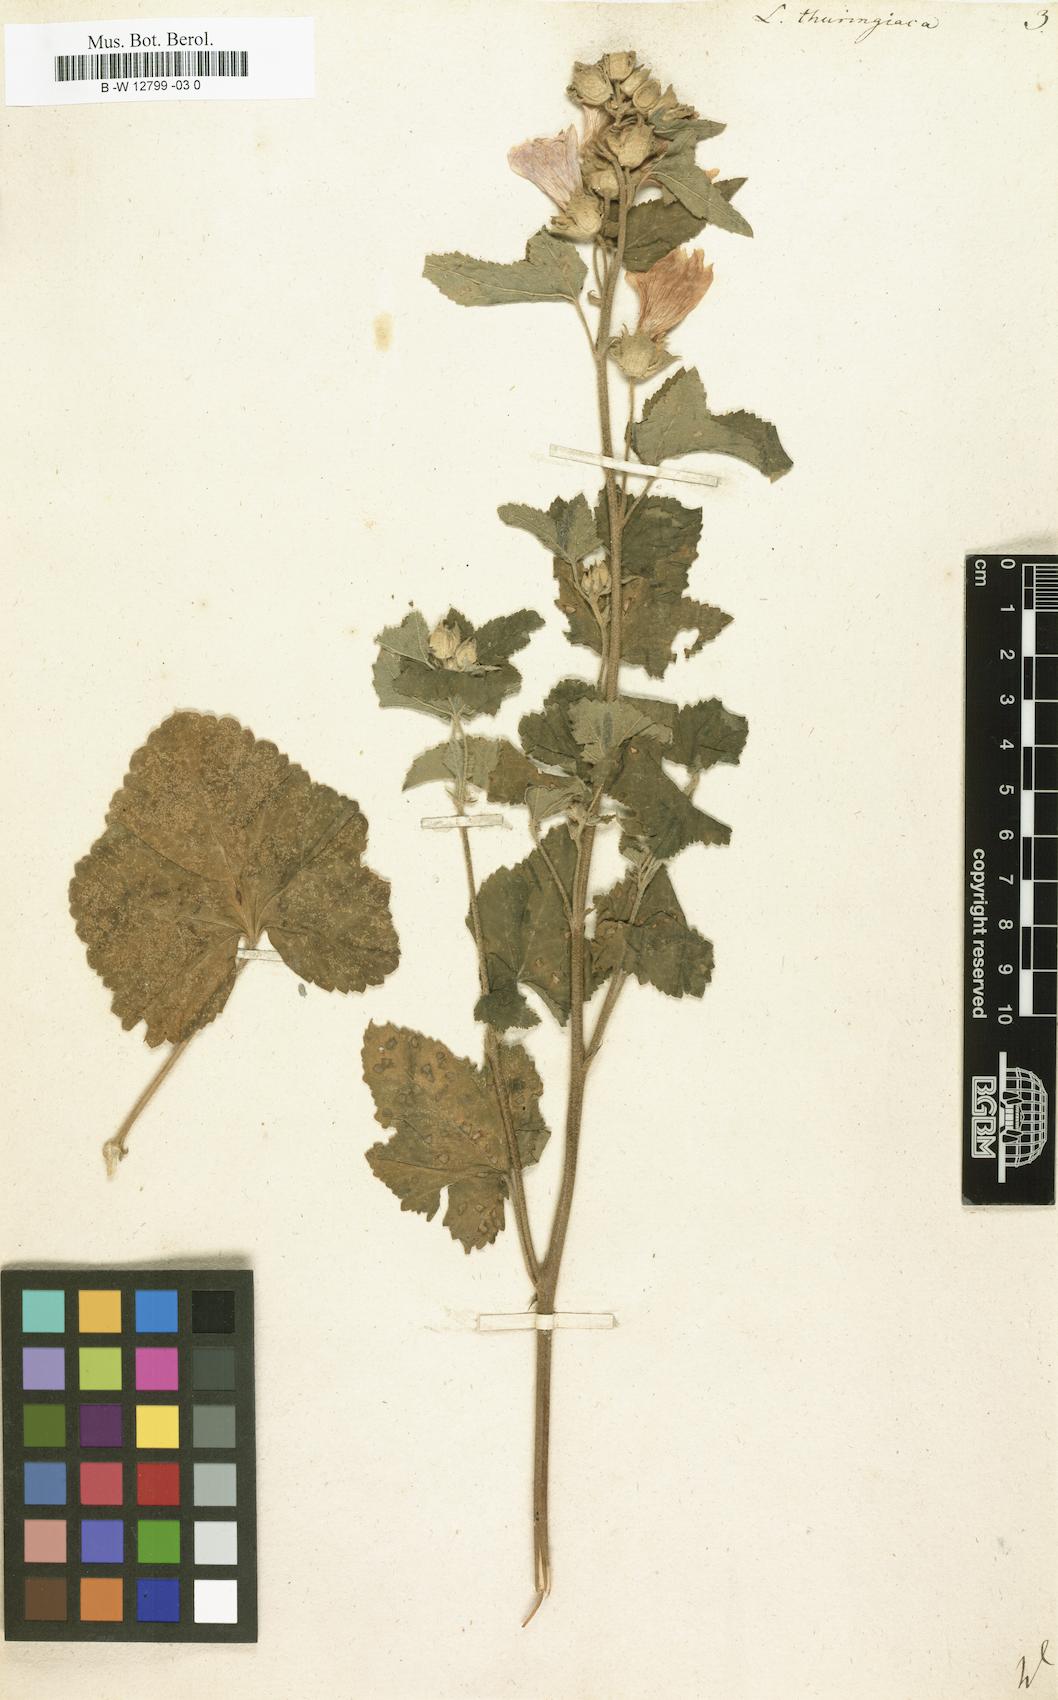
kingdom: Plantae
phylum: Tracheophyta
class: Magnoliopsida
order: Malvales
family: Malvaceae
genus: Malva
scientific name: Malva thuringiaca
